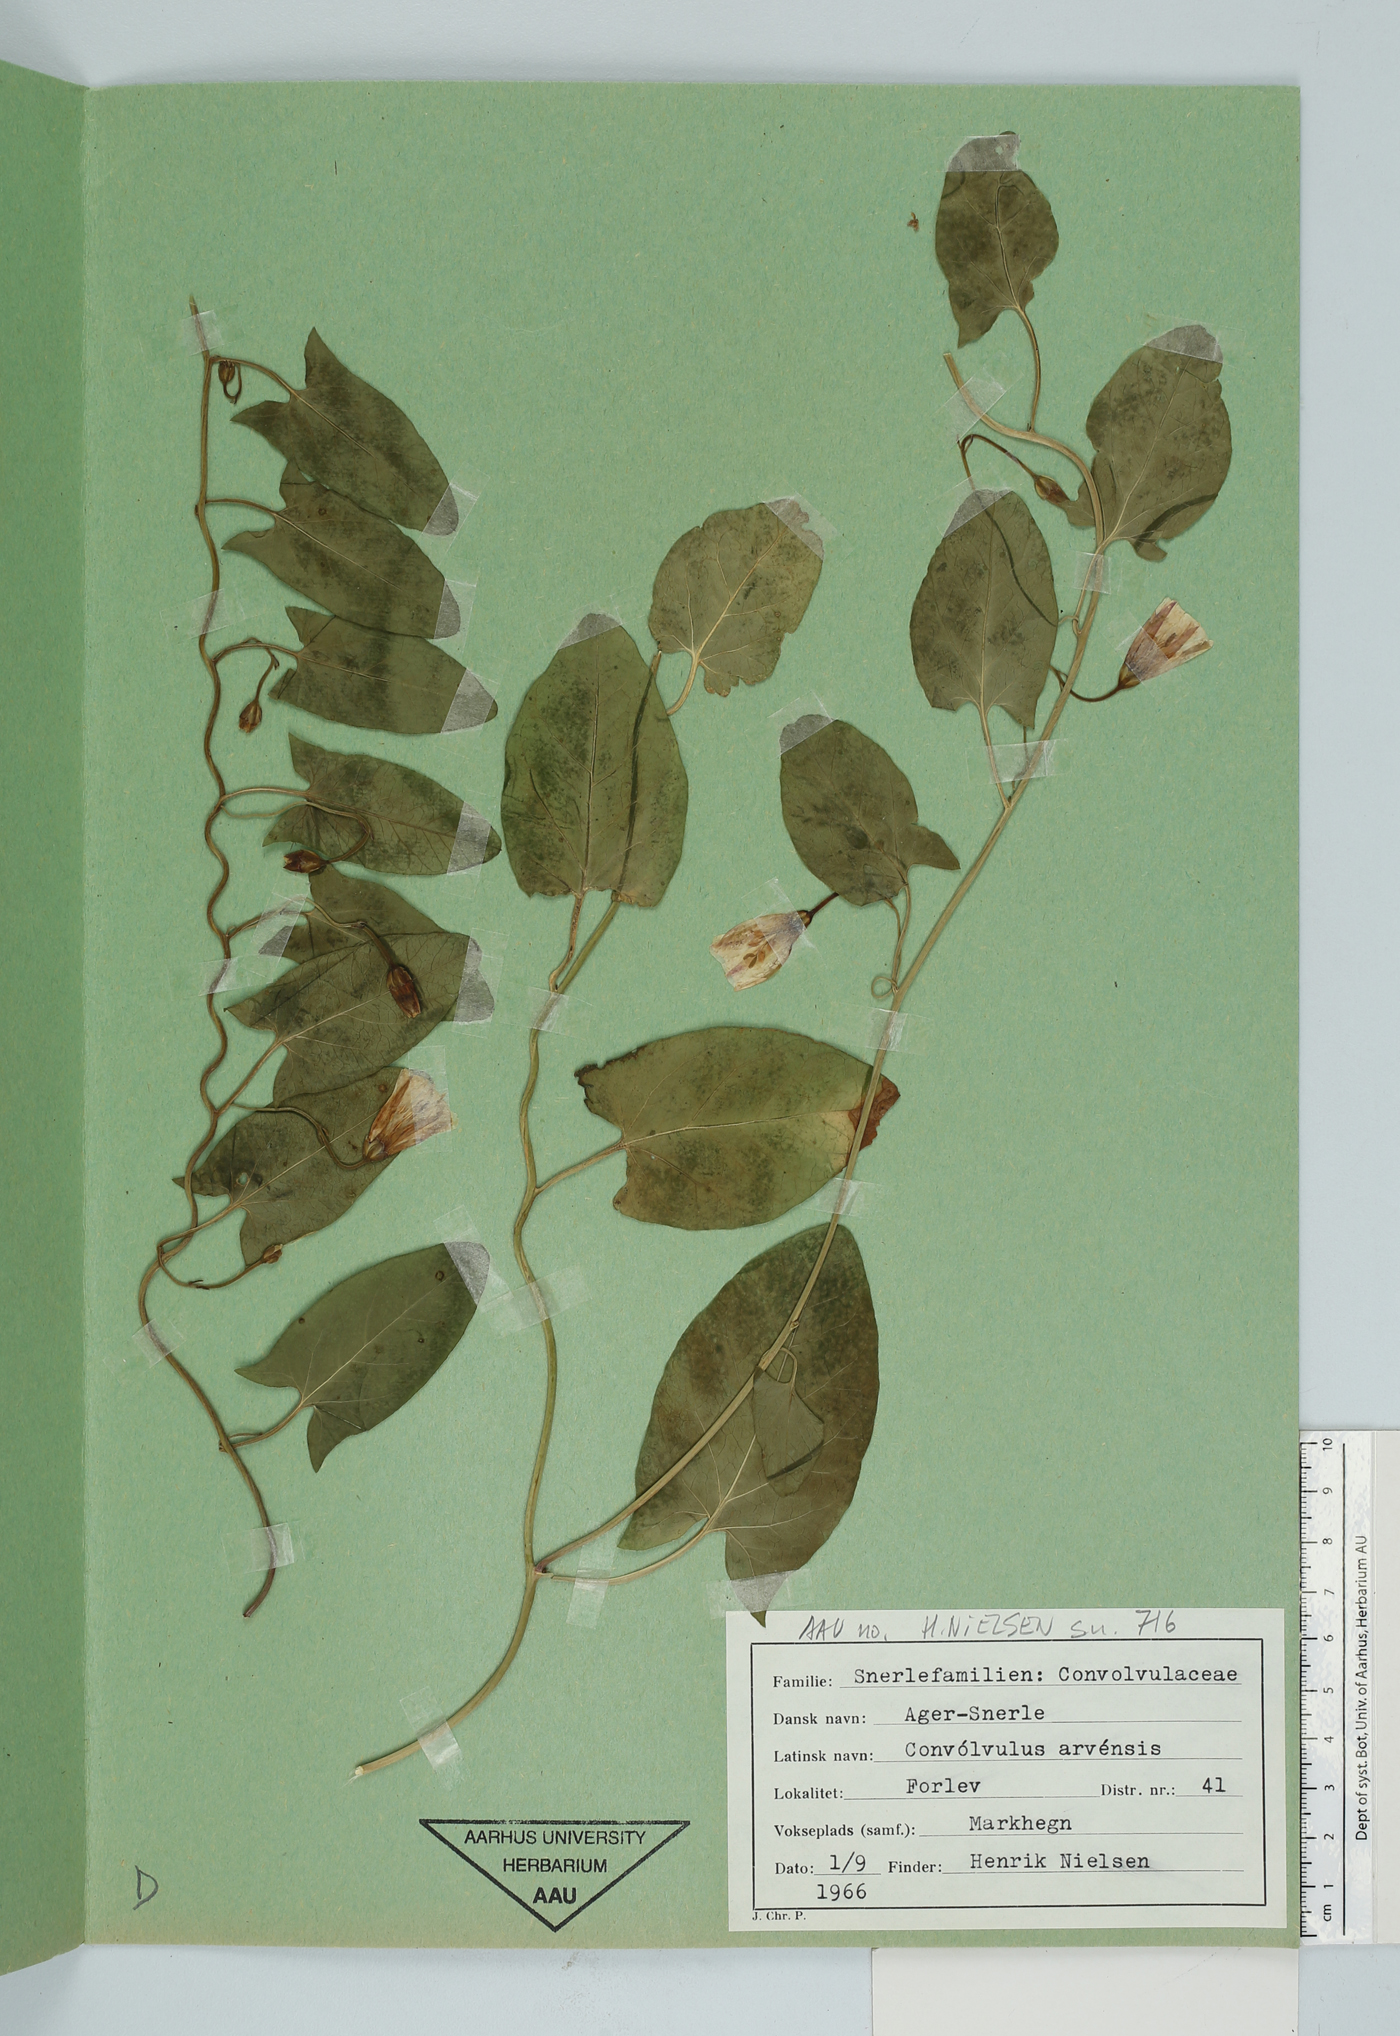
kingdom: Plantae
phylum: Tracheophyta
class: Magnoliopsida
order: Solanales
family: Convolvulaceae
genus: Convolvulus
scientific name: Convolvulus arvensis
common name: Field bindweed
